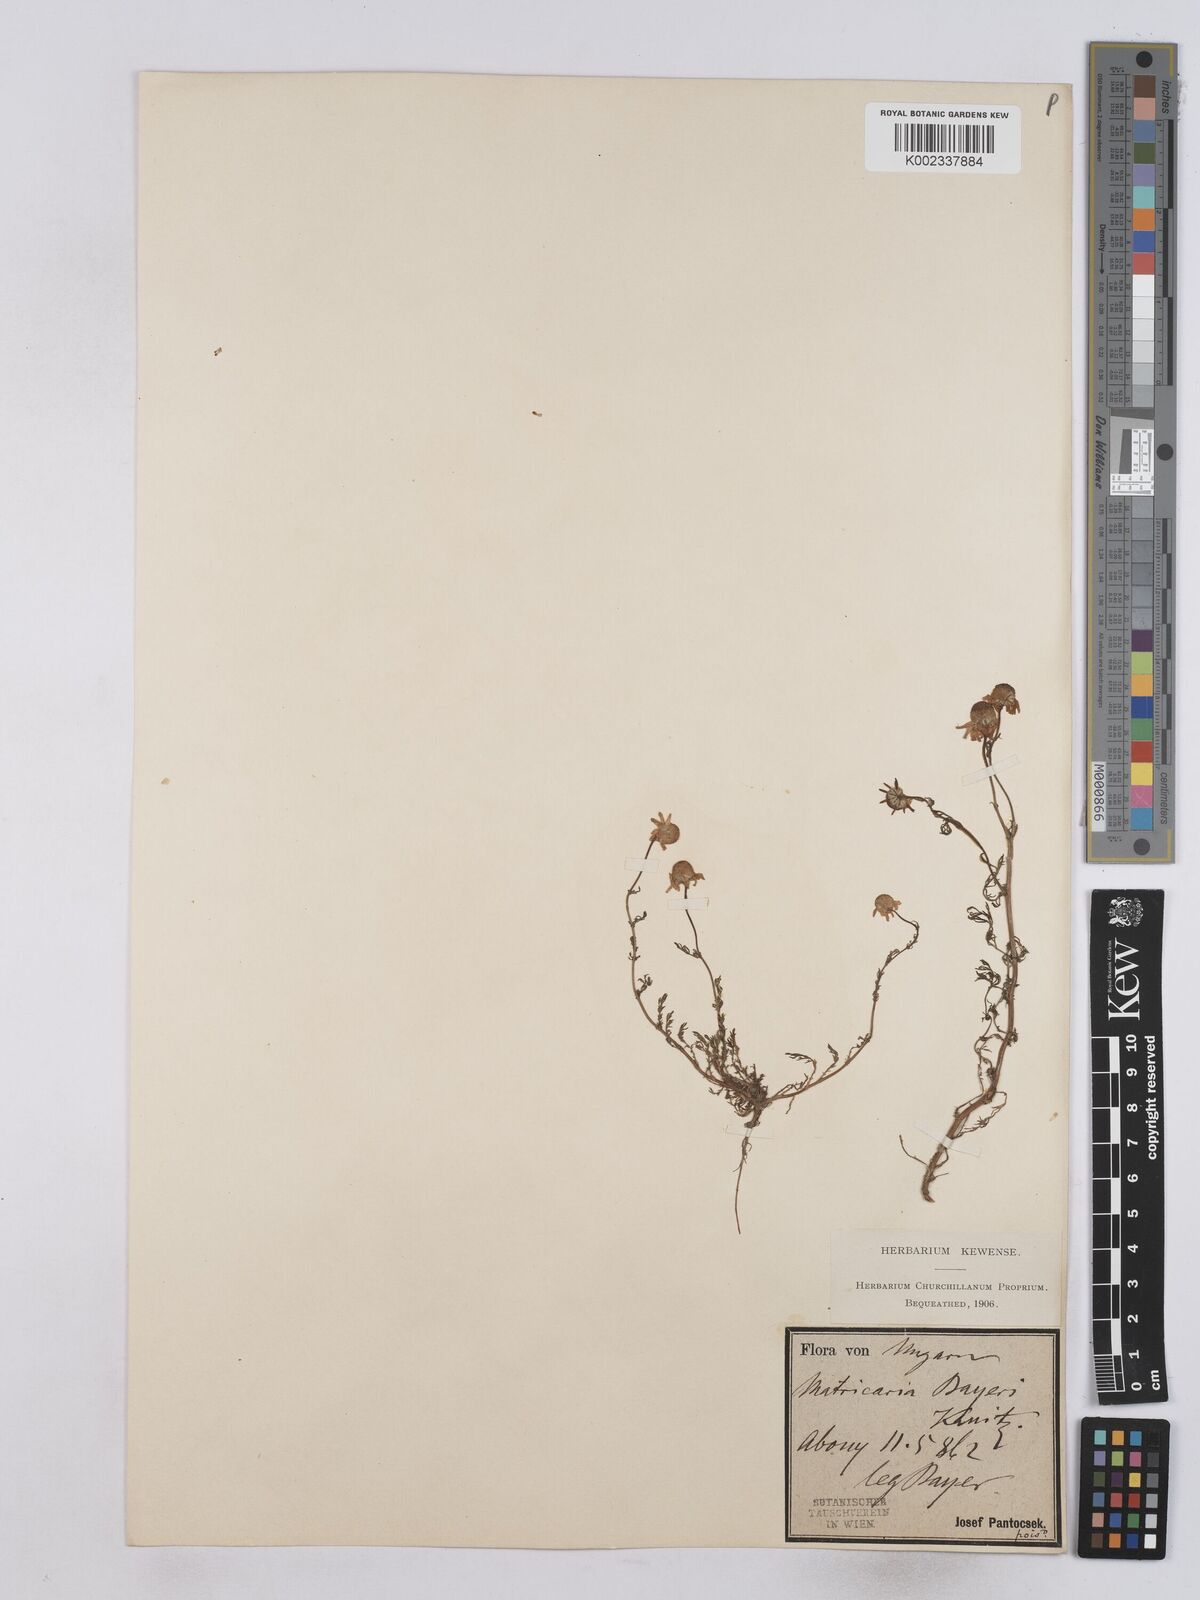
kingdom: Plantae
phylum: Tracheophyta
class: Magnoliopsida
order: Asterales
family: Asteraceae
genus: Matricaria
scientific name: Matricaria chamomilla
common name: Scented mayweed
